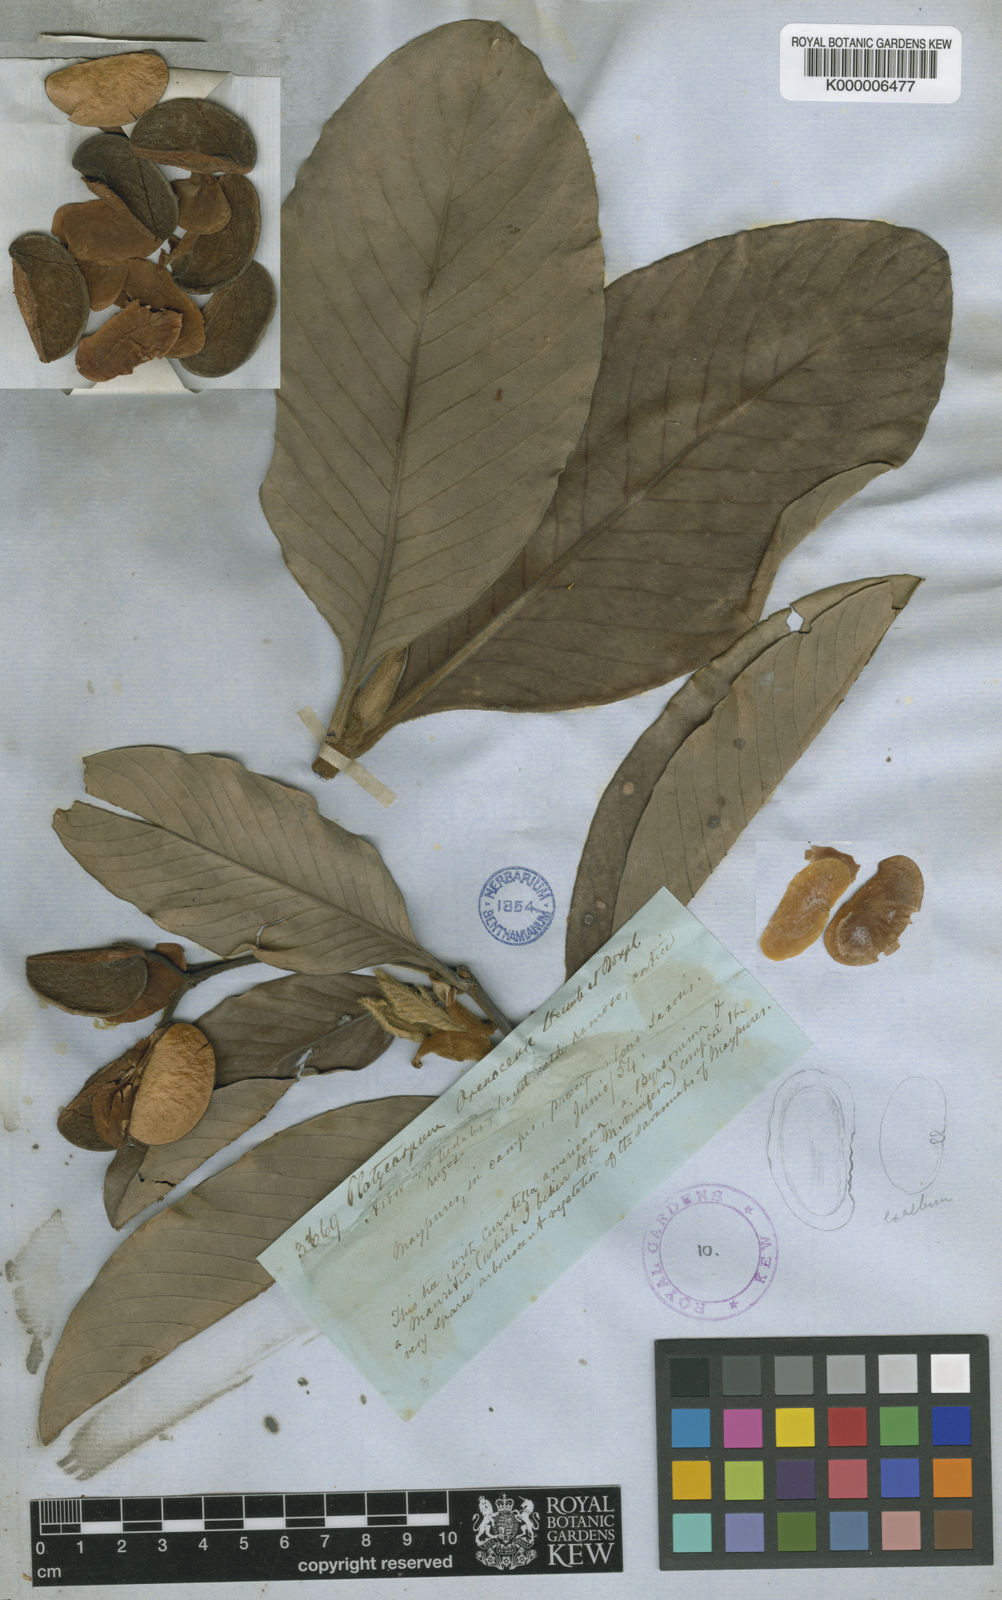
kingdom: Plantae
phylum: Tracheophyta
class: Magnoliopsida
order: Gentianales
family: Rubiaceae
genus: Platycarpum
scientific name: Platycarpum orinocense
